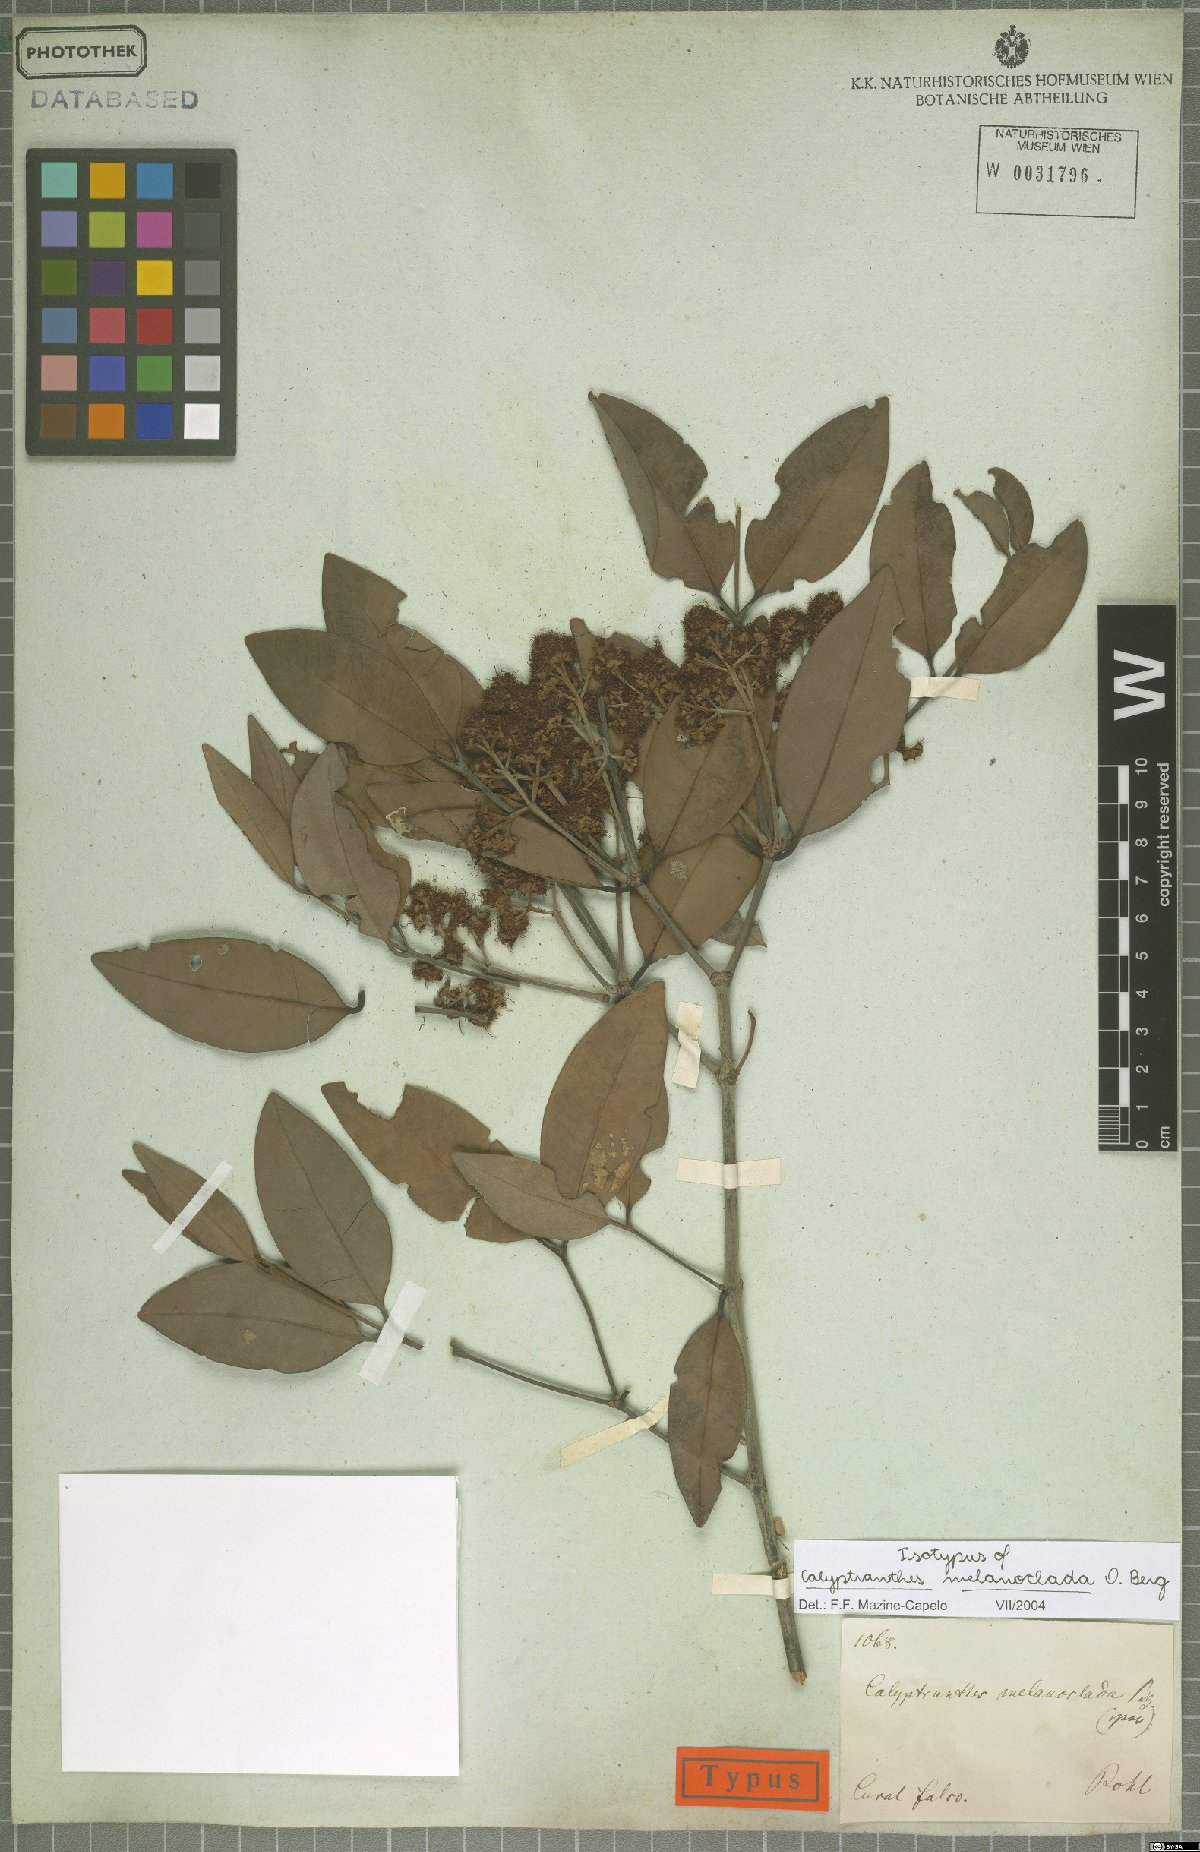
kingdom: Plantae
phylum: Tracheophyta
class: Magnoliopsida
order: Myrtales
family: Myrtaceae
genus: Calyptranthes
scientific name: Calyptranthes melanoclada
